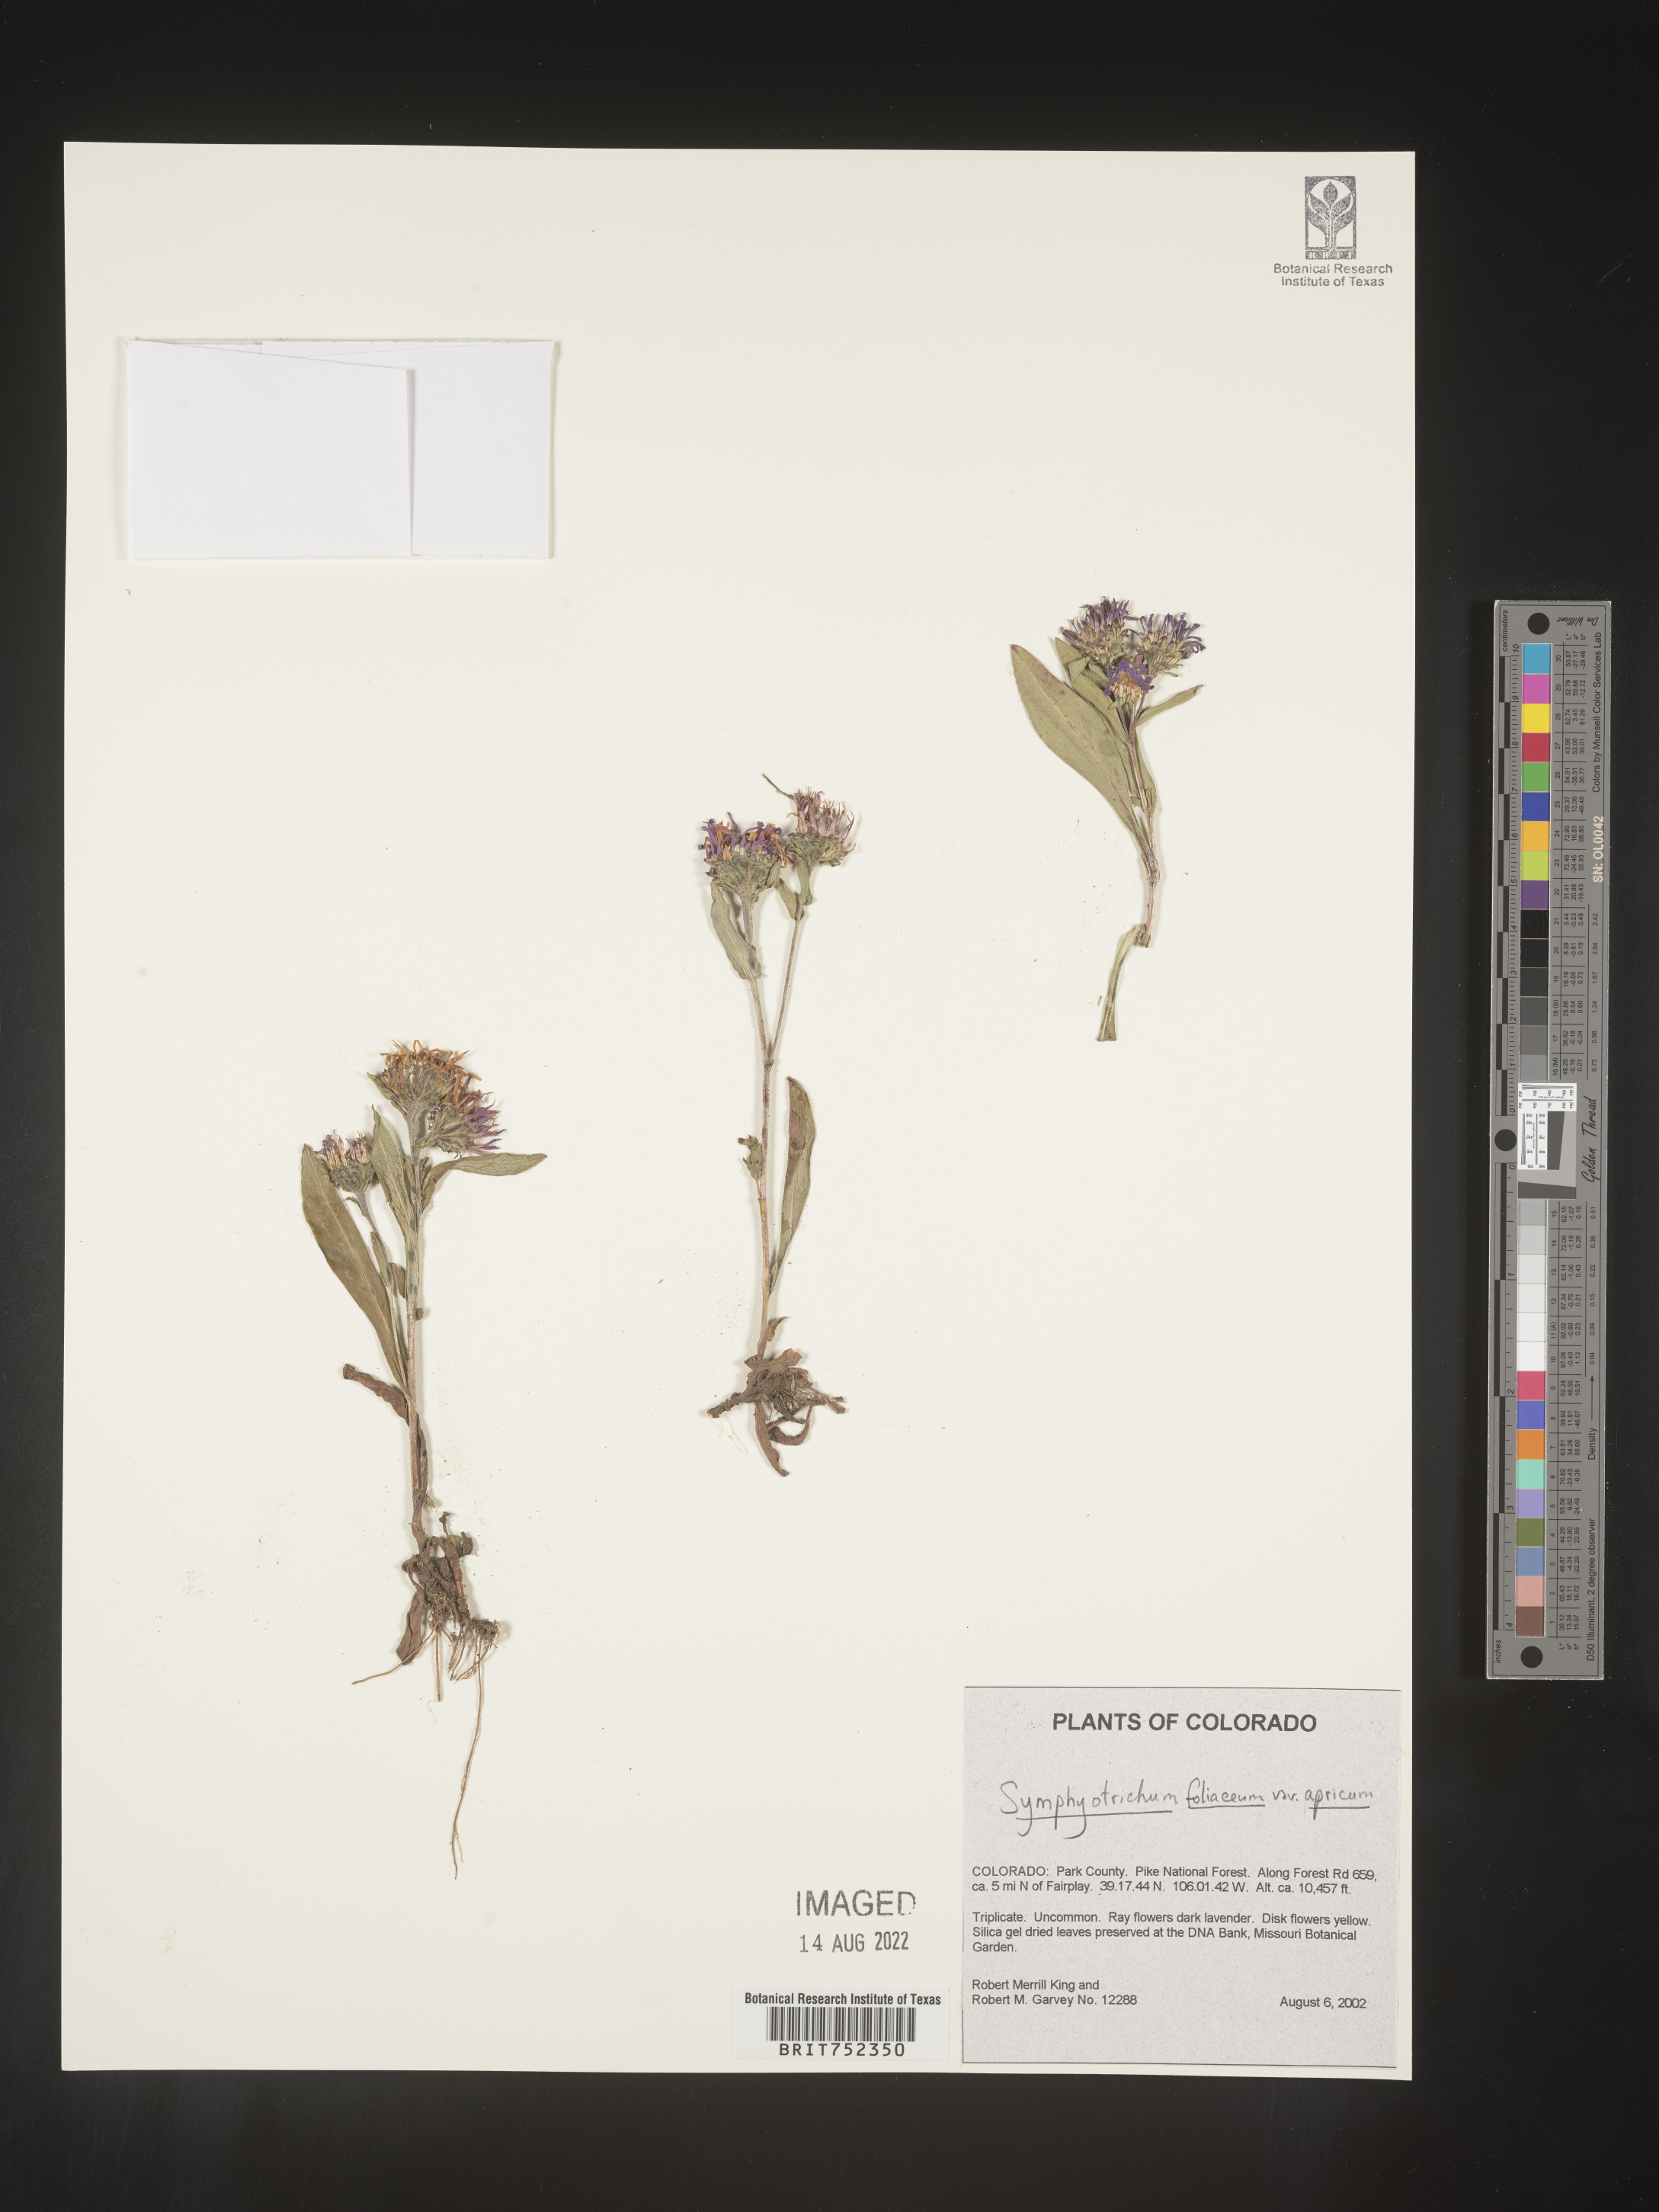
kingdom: Plantae
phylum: Tracheophyta
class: Magnoliopsida
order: Asterales
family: Asteraceae
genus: Symphyotrichum
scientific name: Symphyotrichum foliaceum
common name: Leafy aster
